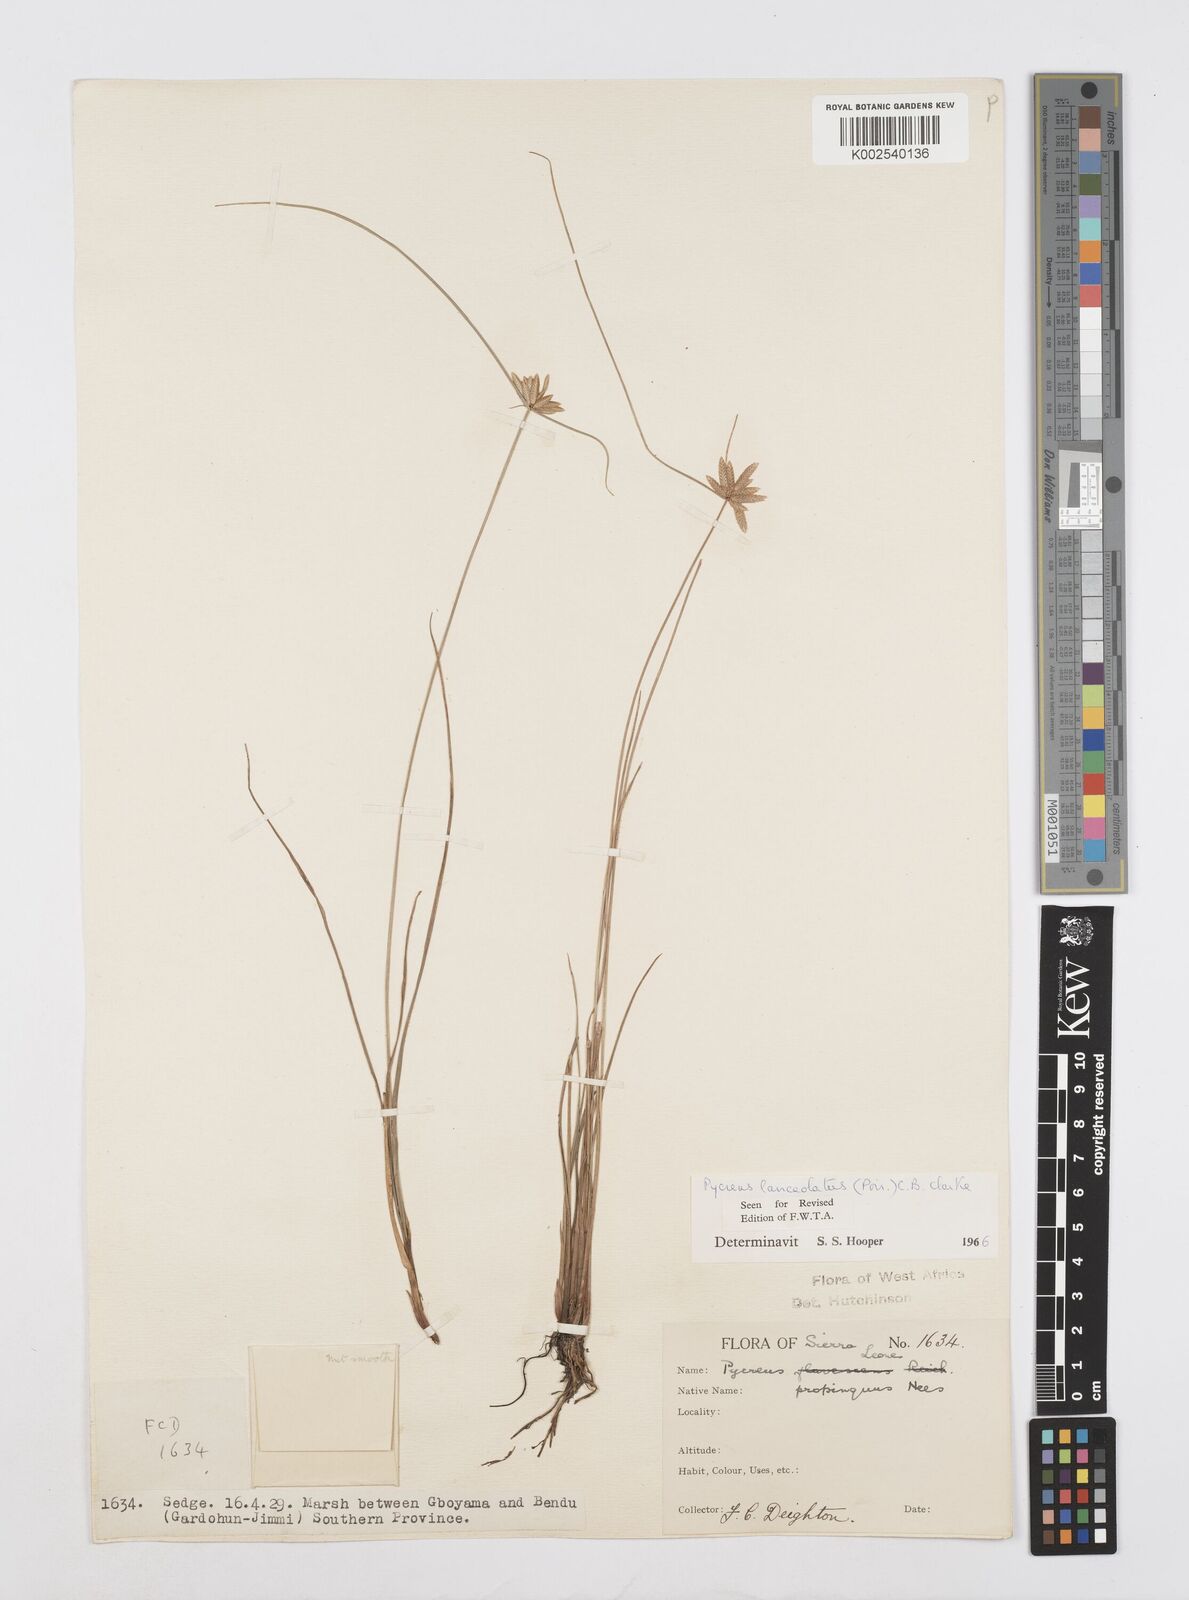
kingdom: Plantae
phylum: Tracheophyta
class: Liliopsida
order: Poales
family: Cyperaceae
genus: Cyperus
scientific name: Cyperus
